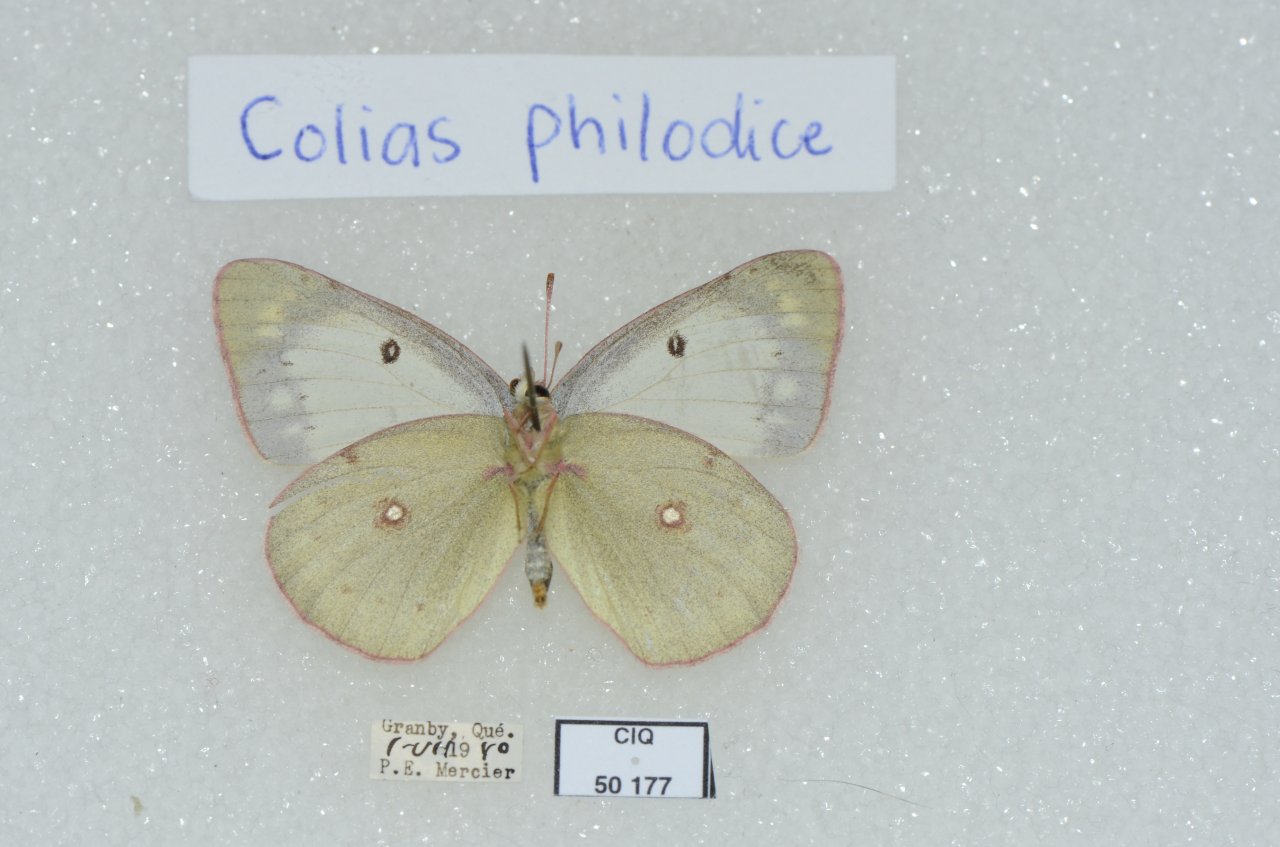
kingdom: Animalia
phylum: Arthropoda
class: Insecta
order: Lepidoptera
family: Pieridae
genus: Colias
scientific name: Colias philodice
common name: Clouded Sulphur
